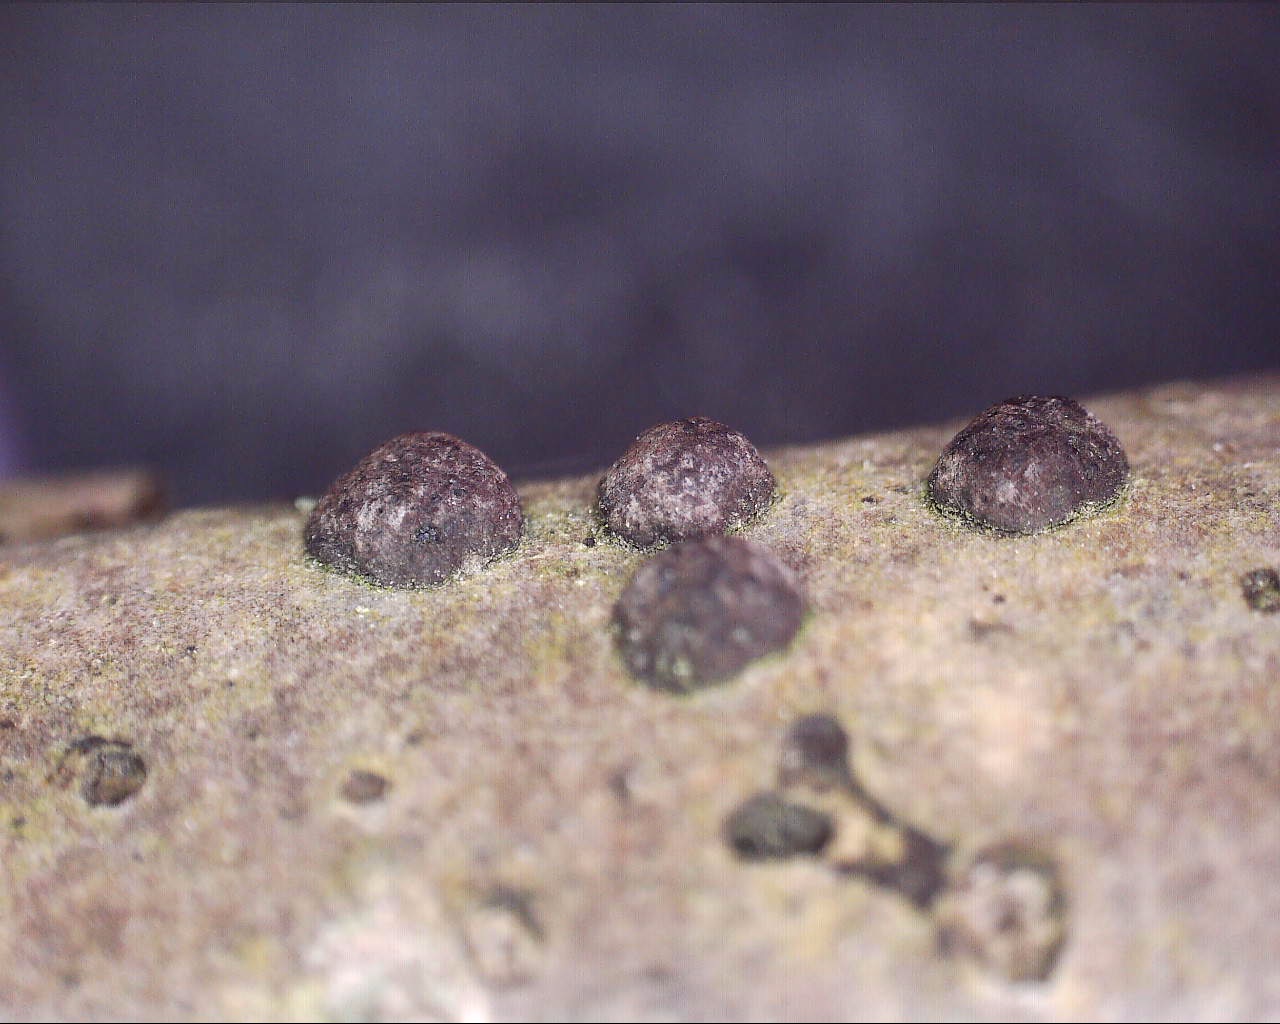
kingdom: Fungi
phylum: Ascomycota
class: Sordariomycetes
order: Xylariales
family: Hypoxylaceae
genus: Hypoxylon
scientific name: Hypoxylon fuscum
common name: kegleformet kulbær
